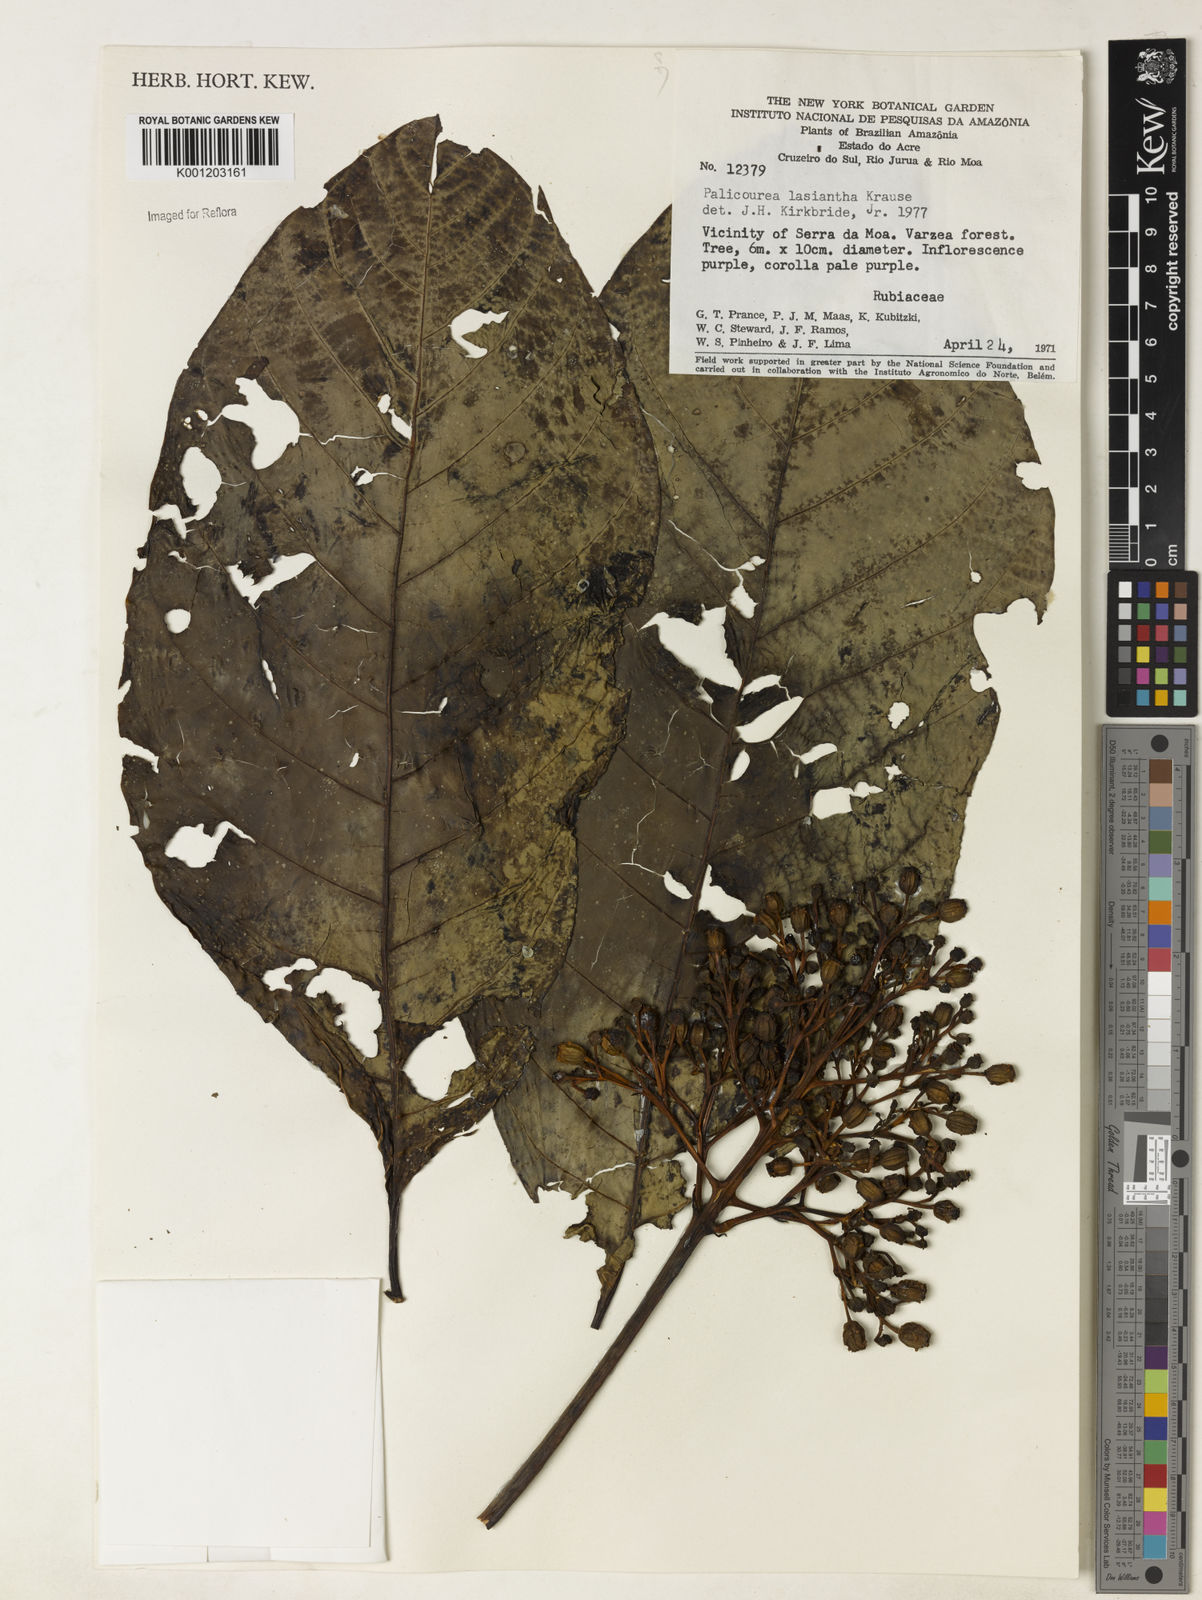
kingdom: Plantae
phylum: Tracheophyta
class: Magnoliopsida
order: Gentianales
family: Rubiaceae
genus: Palicourea
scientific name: Palicourea lasiantha
